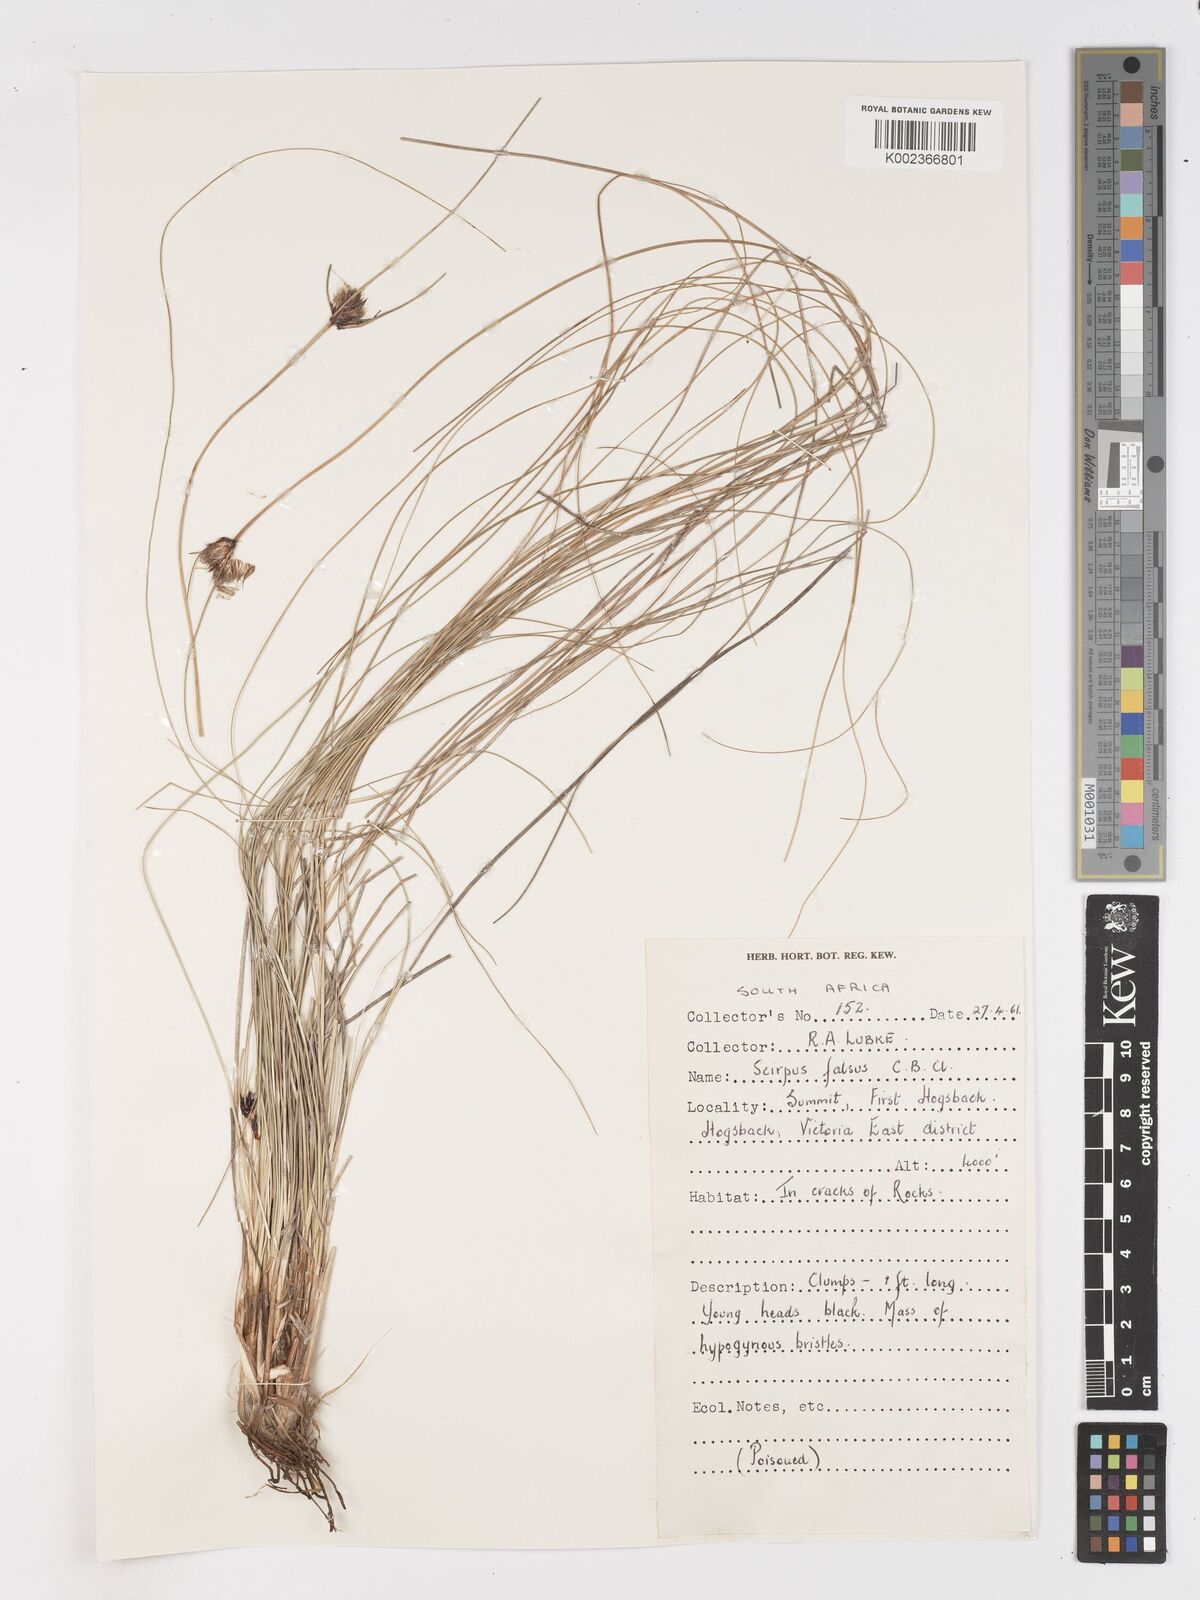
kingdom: Plantae
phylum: Tracheophyta
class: Liliopsida
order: Poales
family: Cyperaceae
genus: Dracoscirpoides
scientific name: Dracoscirpoides falsa
